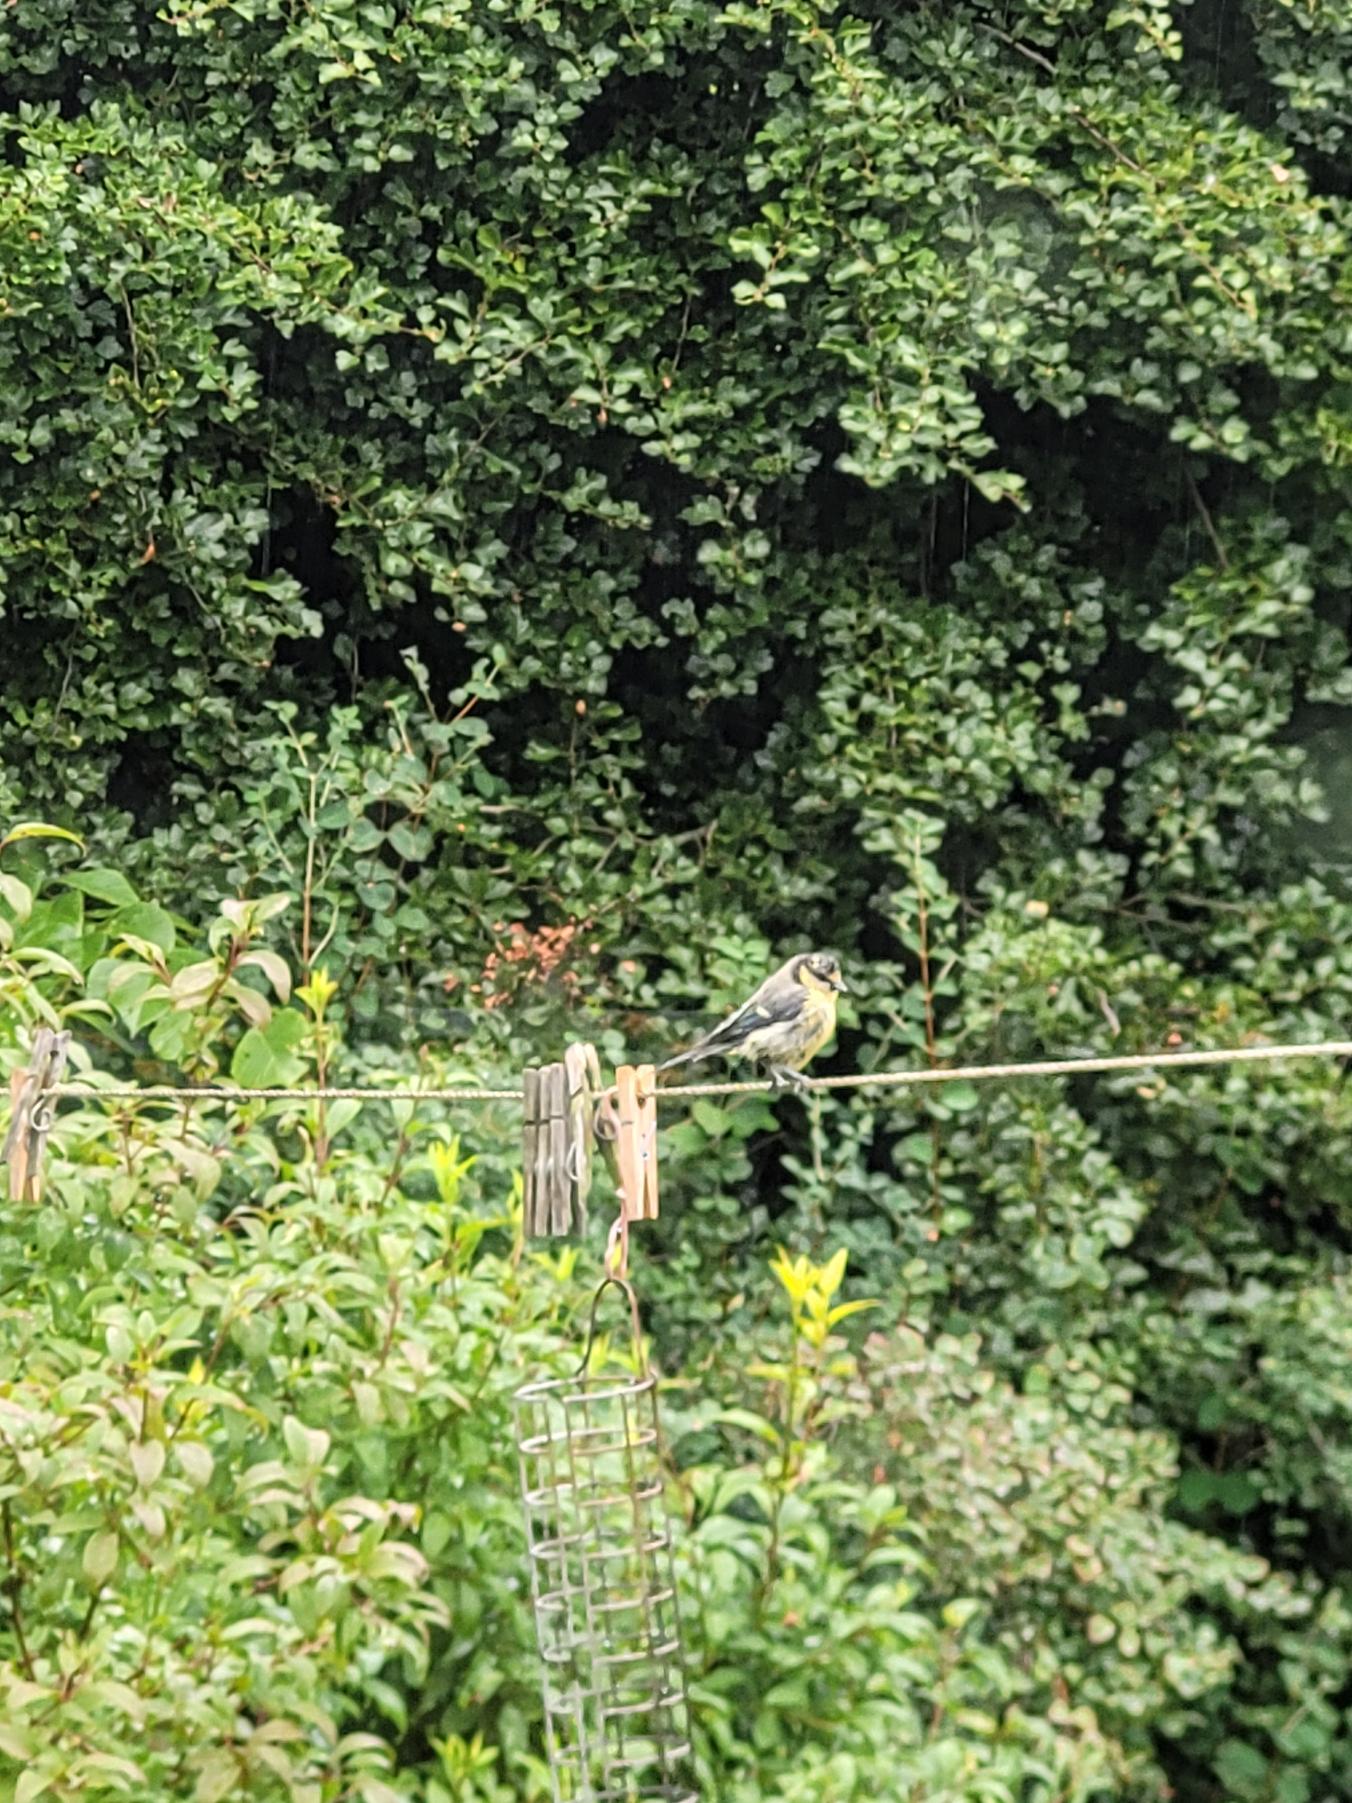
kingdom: Animalia
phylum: Chordata
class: Aves
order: Passeriformes
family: Paridae
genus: Cyanistes
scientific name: Cyanistes caeruleus
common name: Blåmejse
